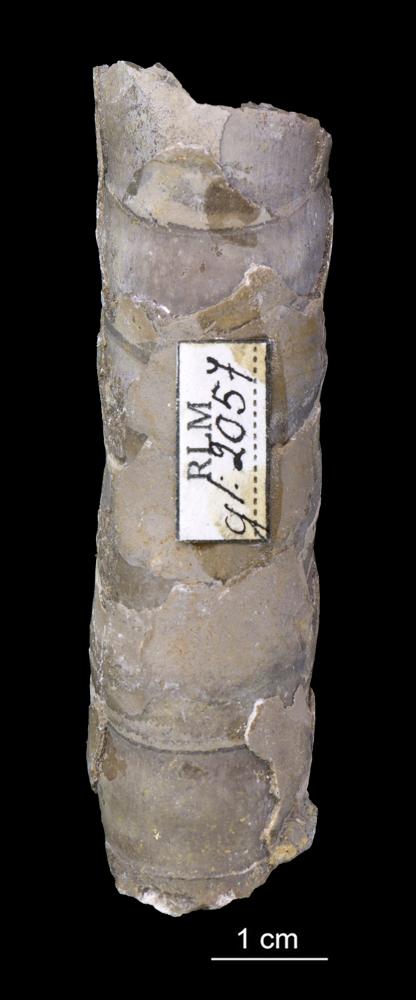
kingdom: Animalia
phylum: Mollusca
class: Cephalopoda
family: Estonioceratidae
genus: Estonioceras
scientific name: Estonioceras
